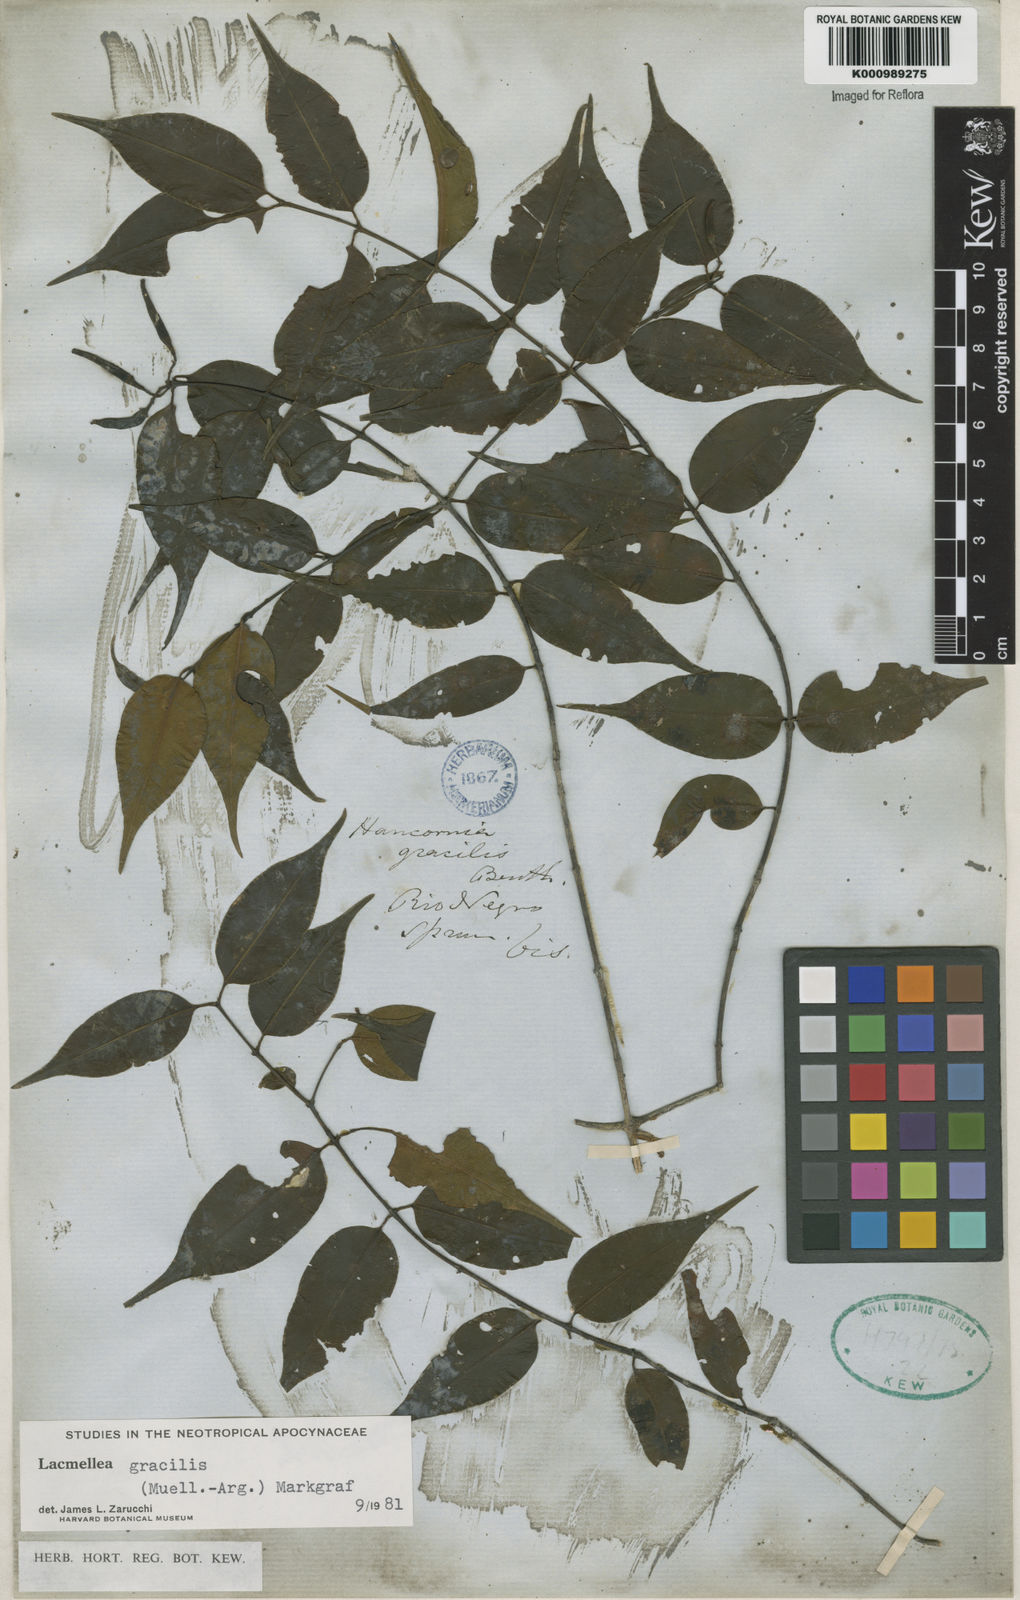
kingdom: Plantae
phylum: Tracheophyta
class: Magnoliopsida
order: Gentianales
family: Apocynaceae
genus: Lacmellea
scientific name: Lacmellea
